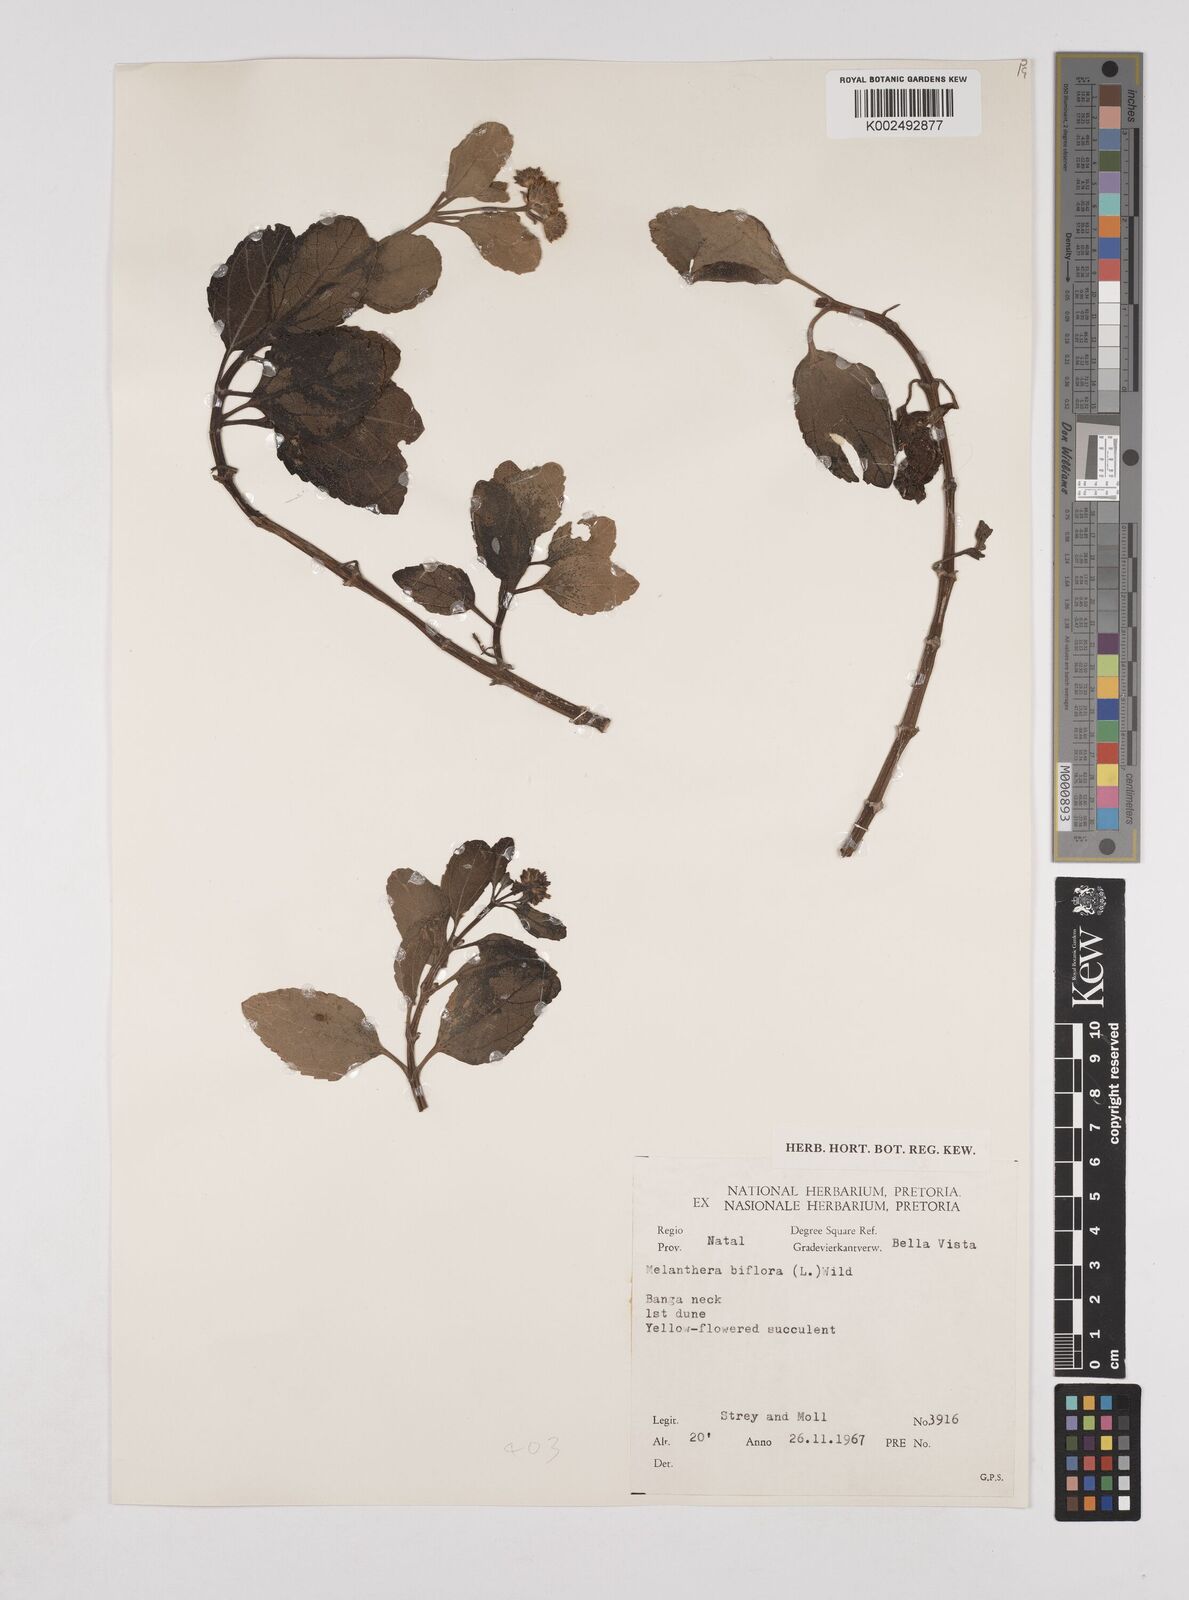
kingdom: Plantae
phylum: Tracheophyta
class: Magnoliopsida
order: Asterales
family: Asteraceae
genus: Wollastonia
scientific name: Wollastonia biflora
